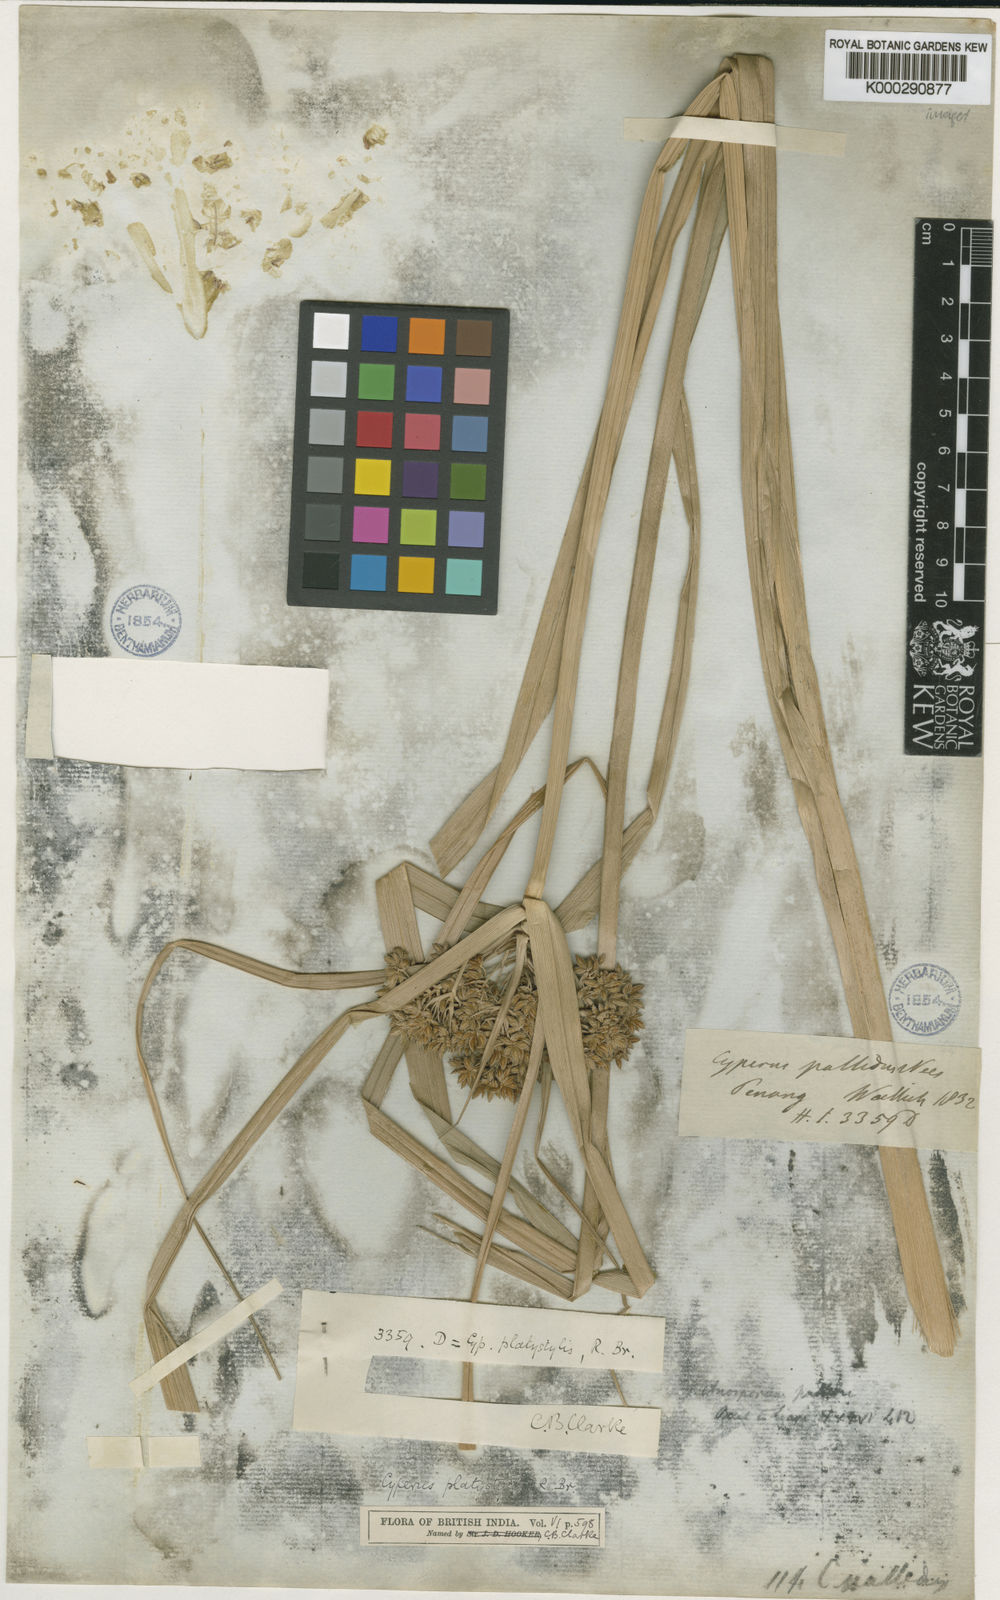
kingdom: Plantae
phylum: Tracheophyta
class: Liliopsida
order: Poales
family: Cyperaceae
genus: Cyperus
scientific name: Cyperus platystylis
